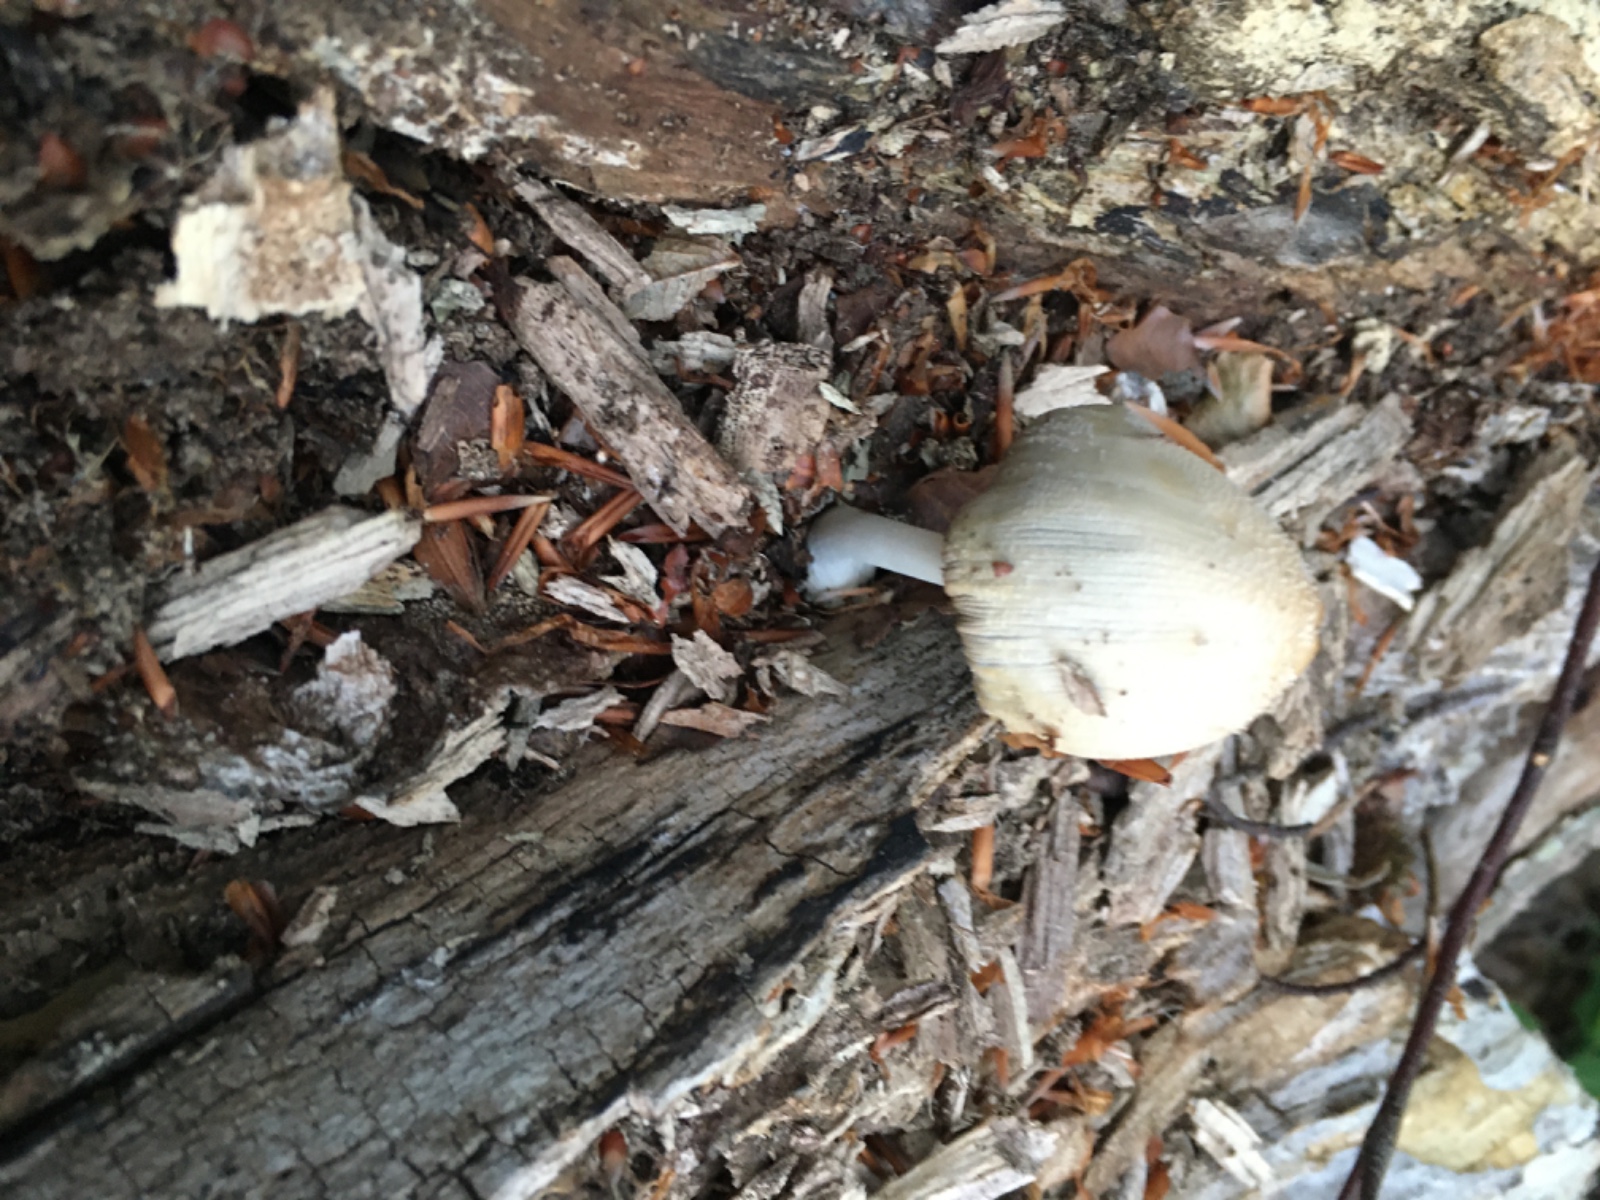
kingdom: Fungi
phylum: Basidiomycota
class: Agaricomycetes
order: Agaricales
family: Psathyrellaceae
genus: Coprinellus
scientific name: Coprinellus
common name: blækhat
